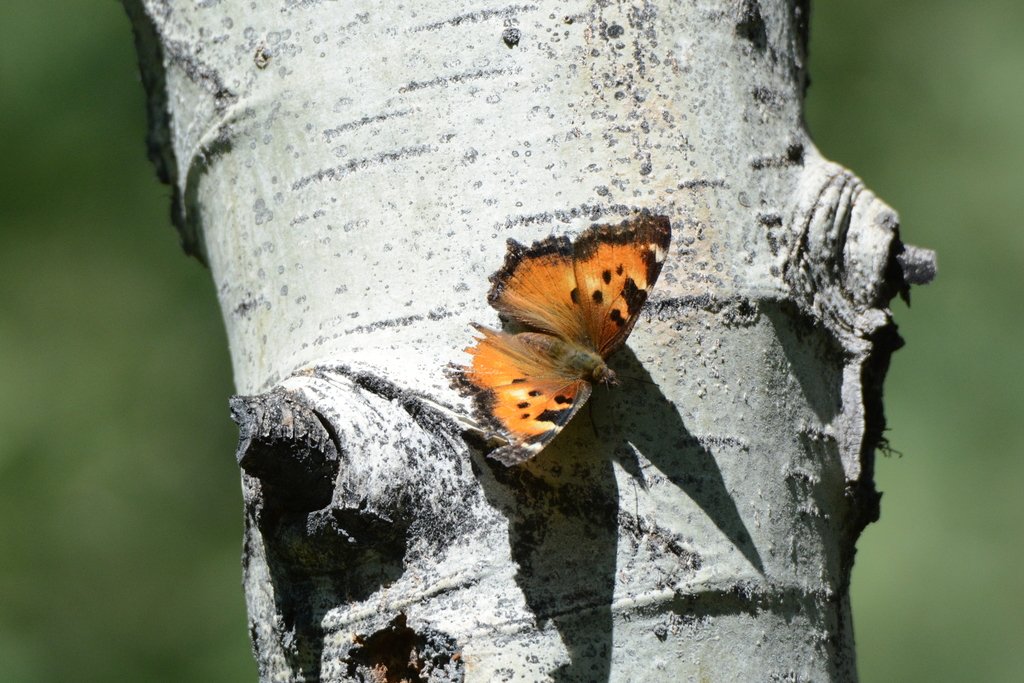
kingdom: Animalia
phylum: Arthropoda
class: Insecta
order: Lepidoptera
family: Nymphalidae
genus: Nymphalis
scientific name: Nymphalis californica
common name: California Tortoiseshell
